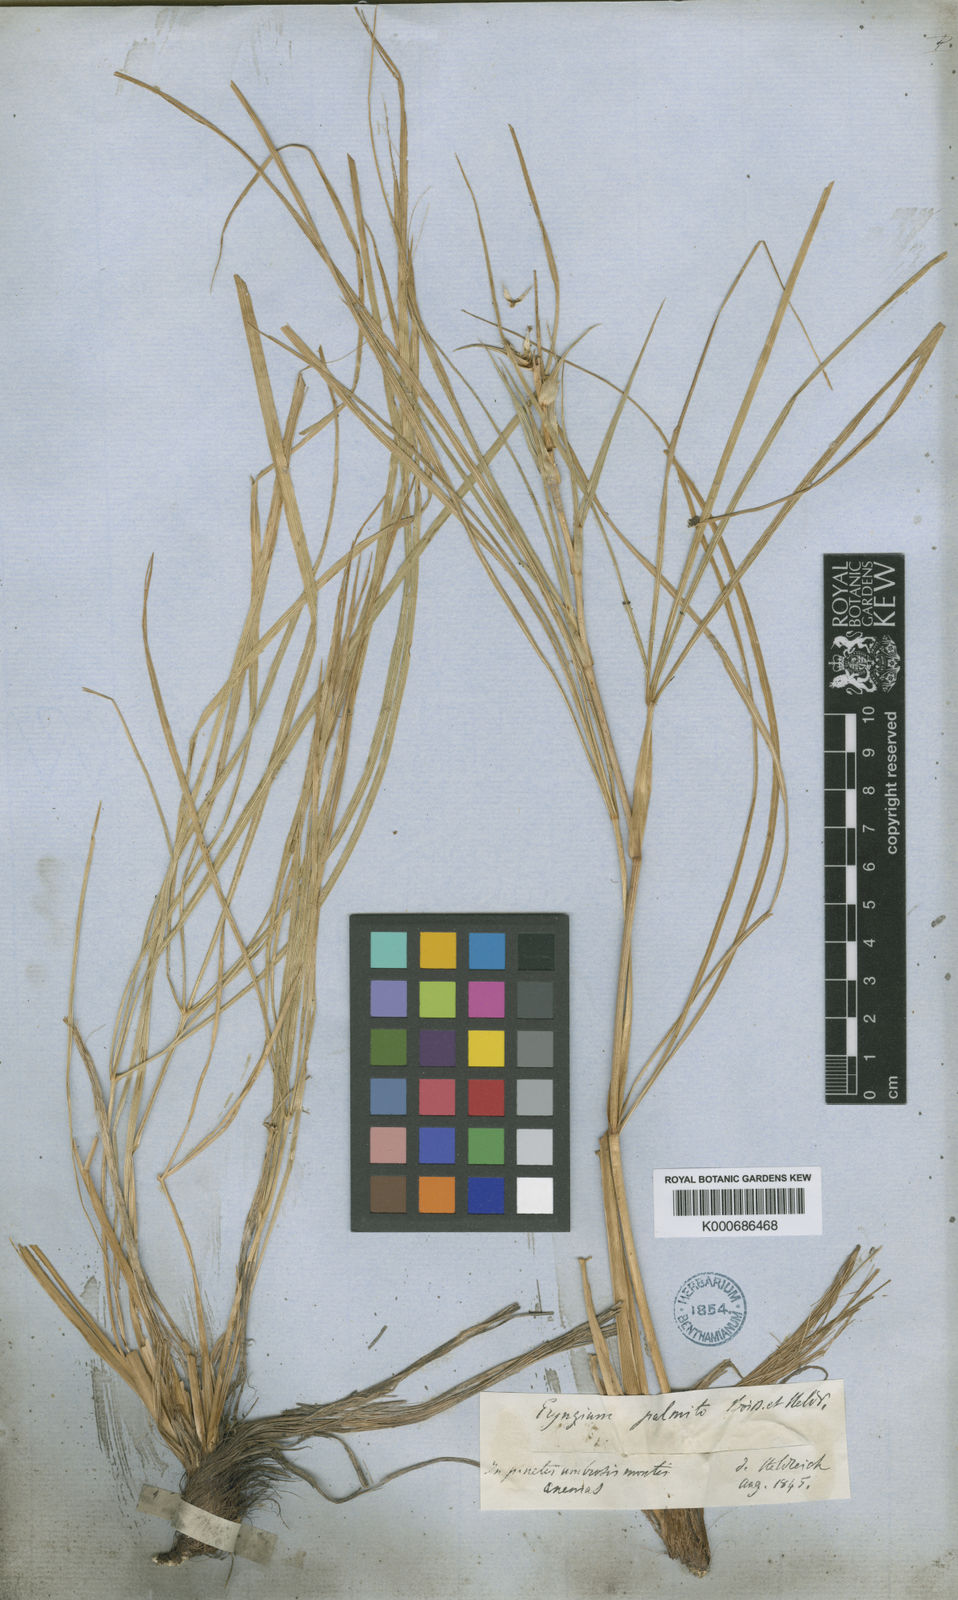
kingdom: Plantae
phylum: Tracheophyta
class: Magnoliopsida
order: Apiales
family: Apiaceae
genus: Eryngium
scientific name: Eryngium palmito
